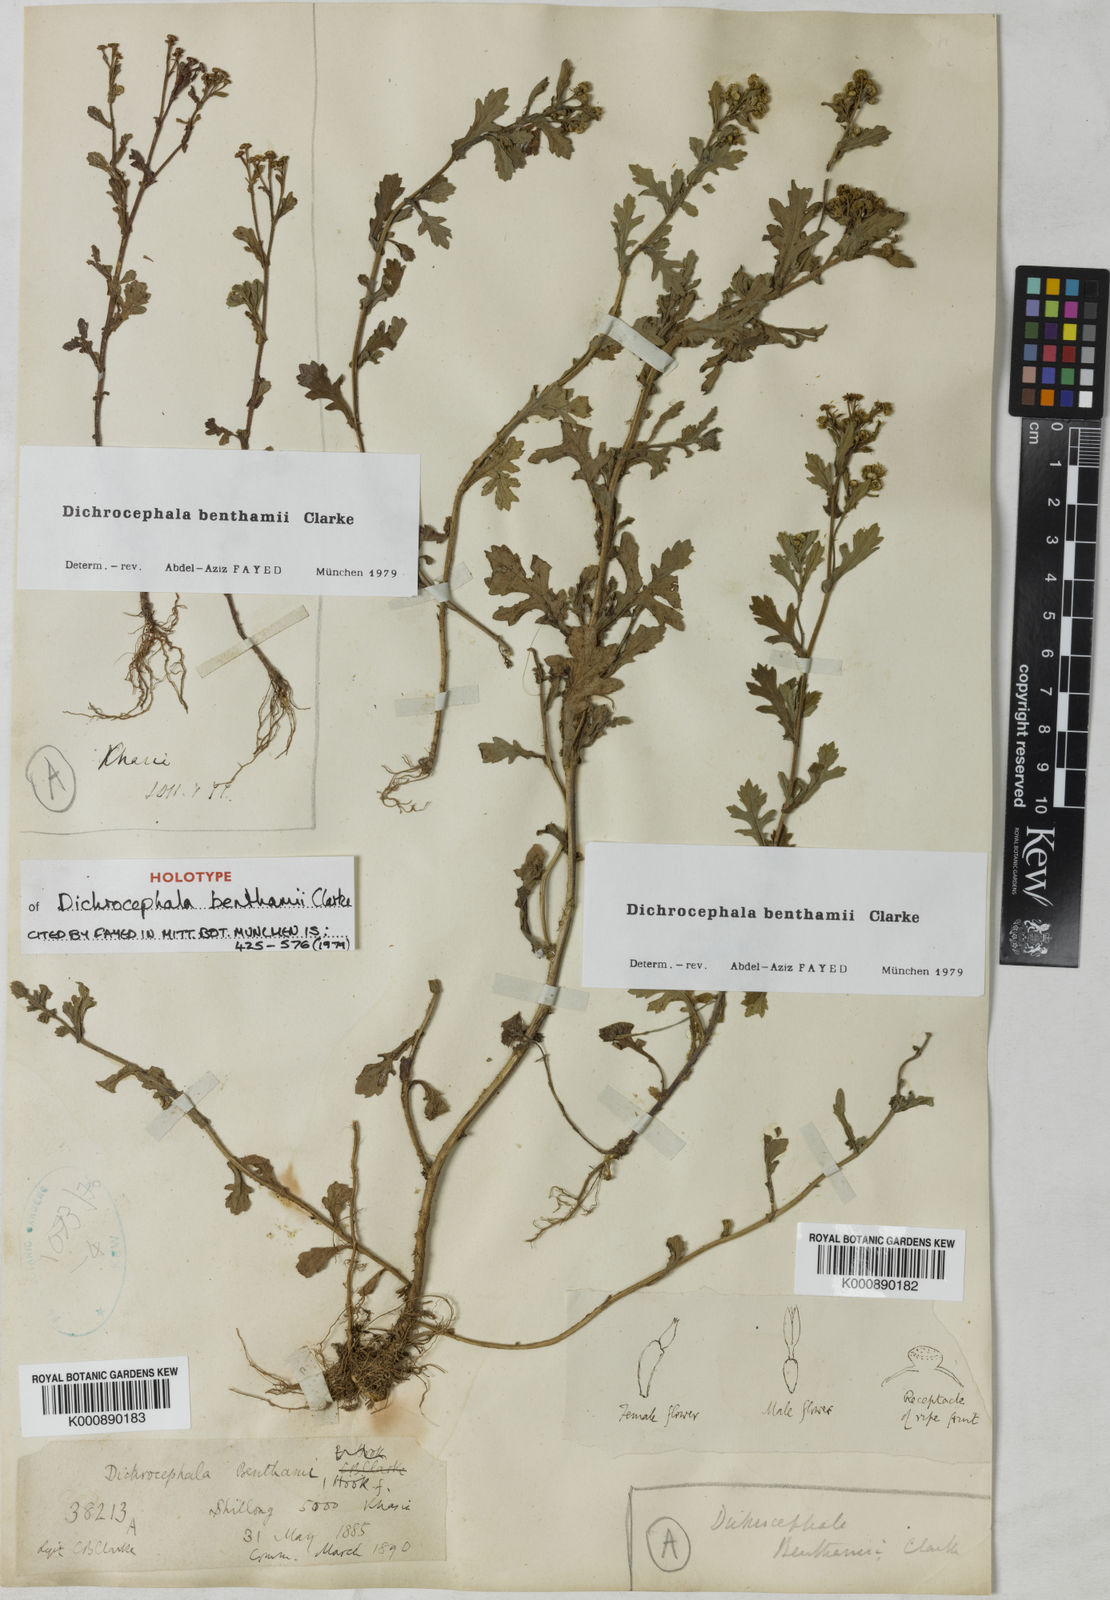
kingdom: Plantae
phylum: Tracheophyta
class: Magnoliopsida
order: Asterales
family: Asteraceae
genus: Dichrocephala
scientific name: Dichrocephala benthamii
